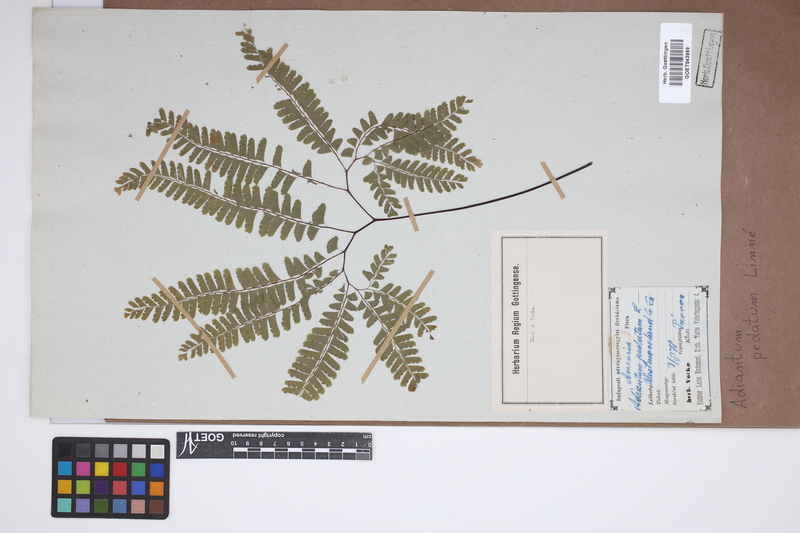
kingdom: Plantae
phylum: Tracheophyta
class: Polypodiopsida
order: Polypodiales
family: Pteridaceae
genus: Adiantum
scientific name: Adiantum pedatum
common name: Five-finger fern
